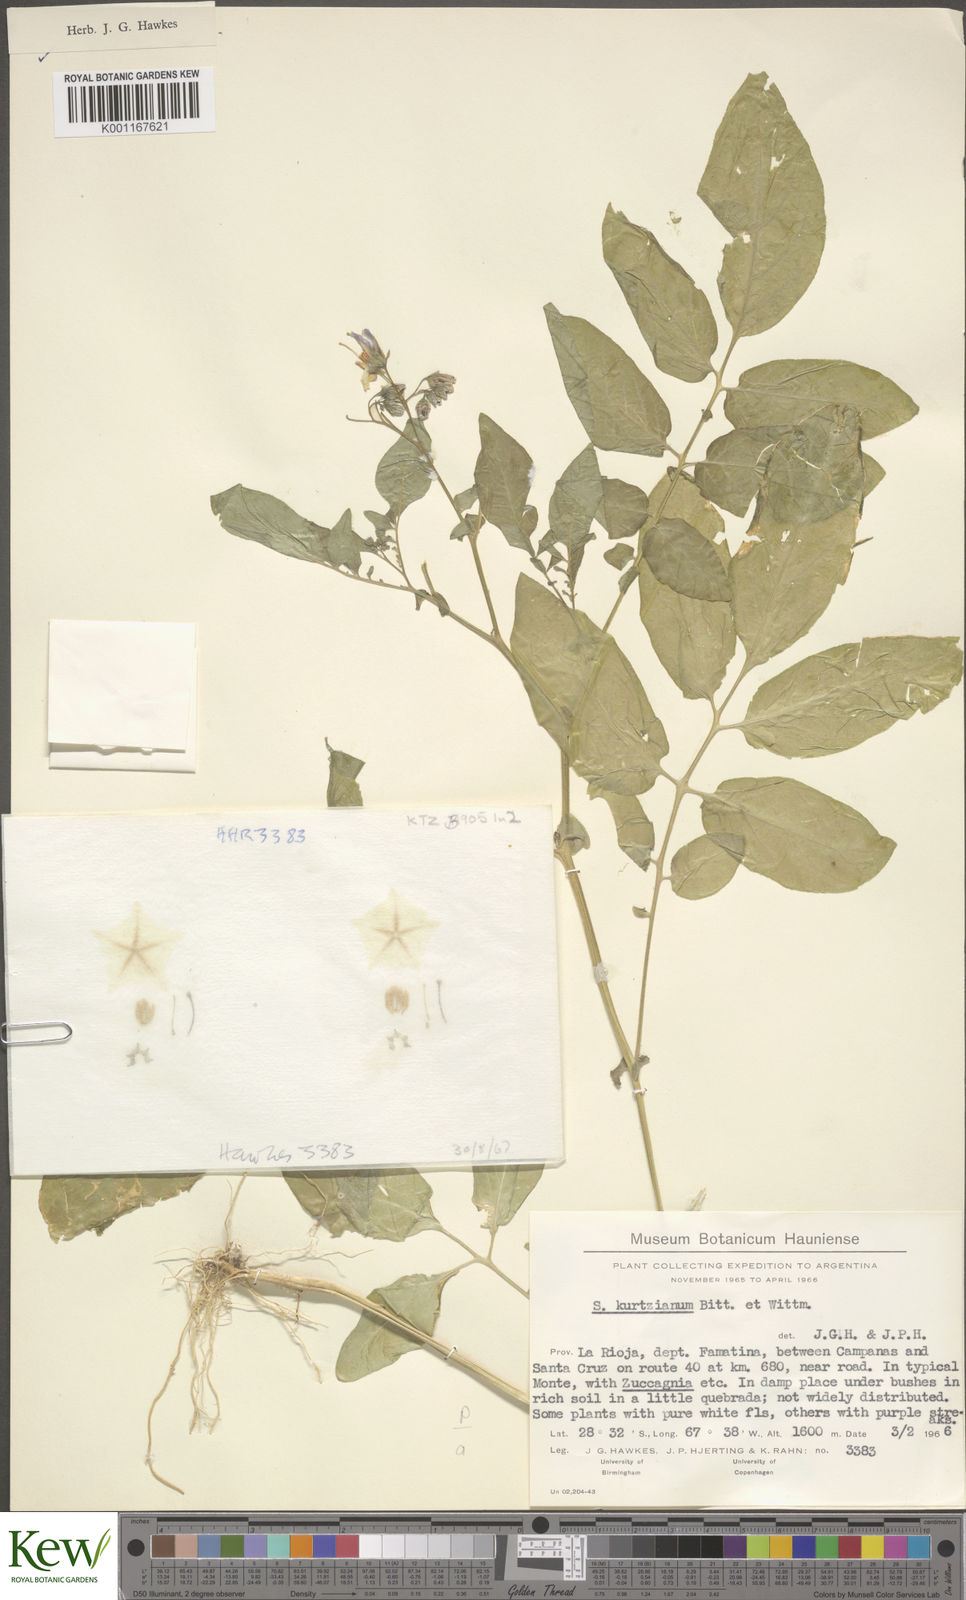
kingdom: Plantae
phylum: Tracheophyta
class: Magnoliopsida
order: Solanales
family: Solanaceae
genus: Solanum
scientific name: Solanum kurtzianum
